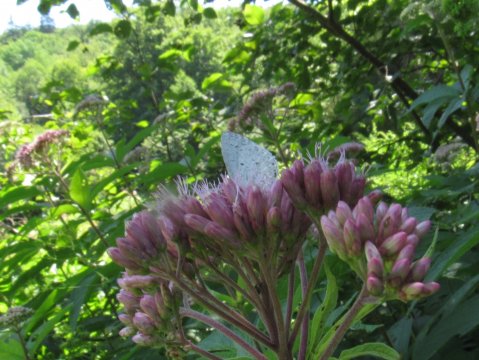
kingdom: Animalia
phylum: Arthropoda
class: Insecta
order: Lepidoptera
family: Lycaenidae
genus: Cyaniris
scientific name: Cyaniris neglecta
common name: Summer Azure
